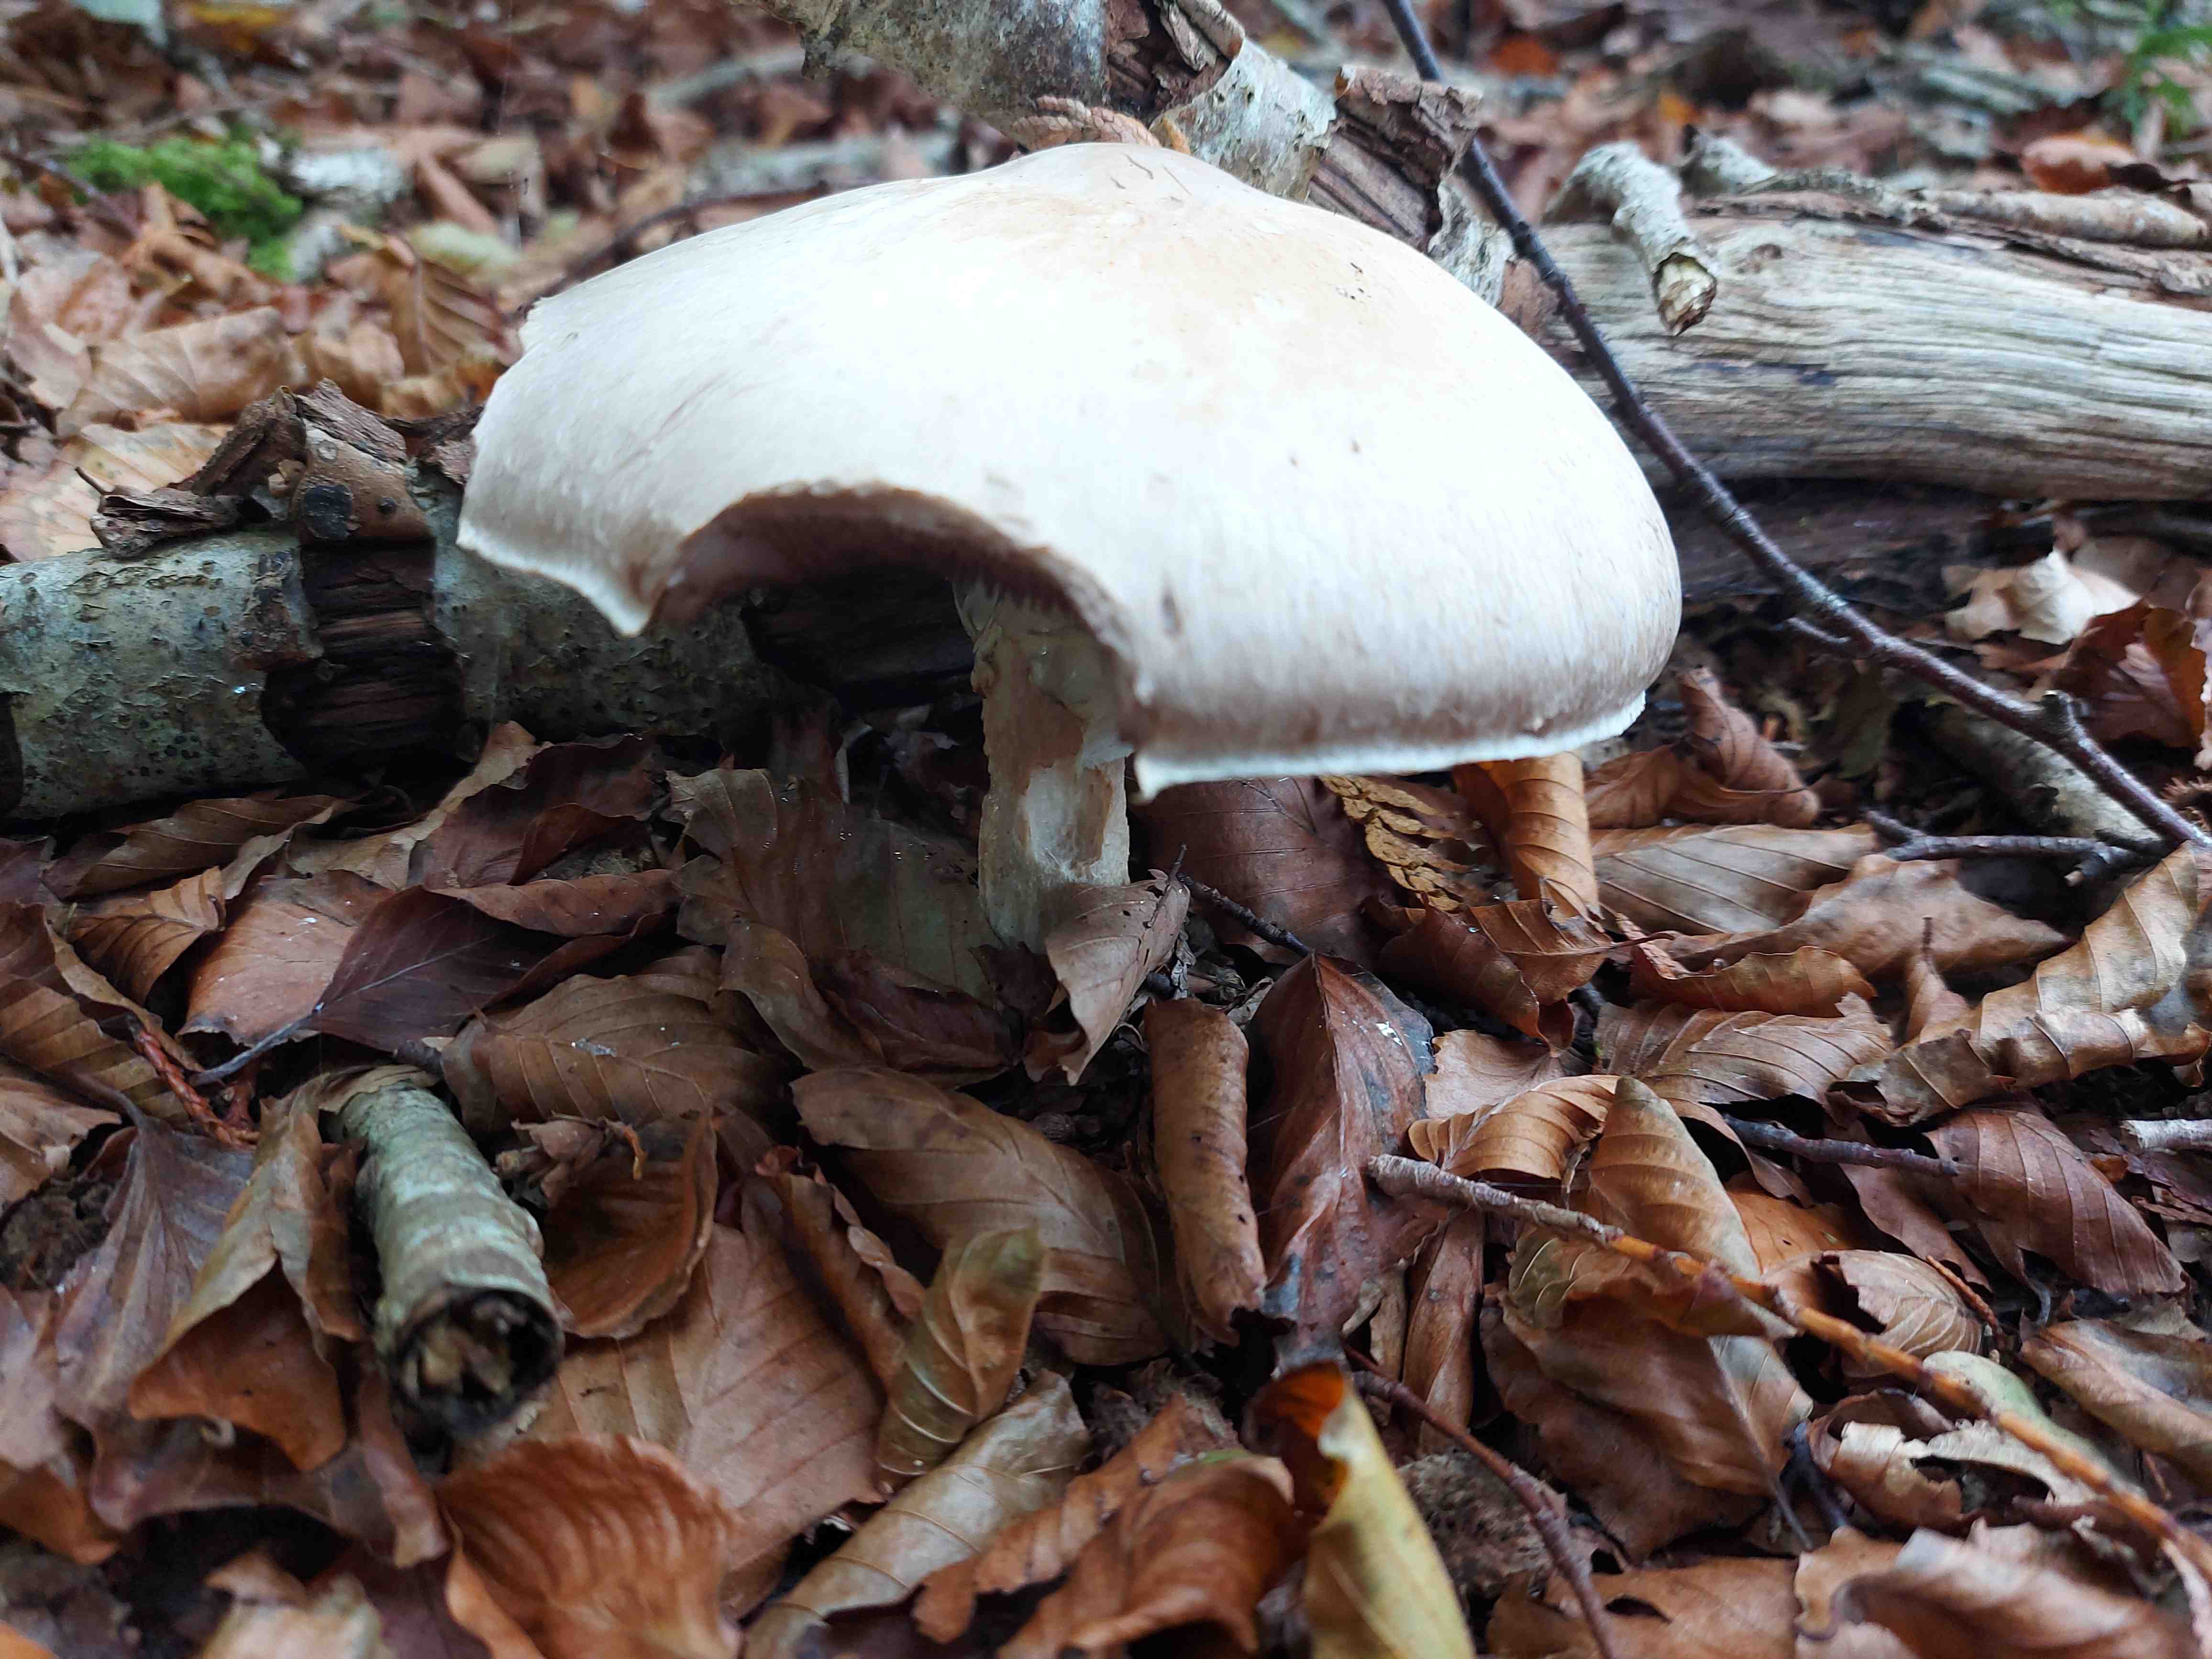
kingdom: Fungi
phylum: Basidiomycota
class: Agaricomycetes
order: Agaricales
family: Agaricaceae
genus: Agaricus
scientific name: Agaricus
